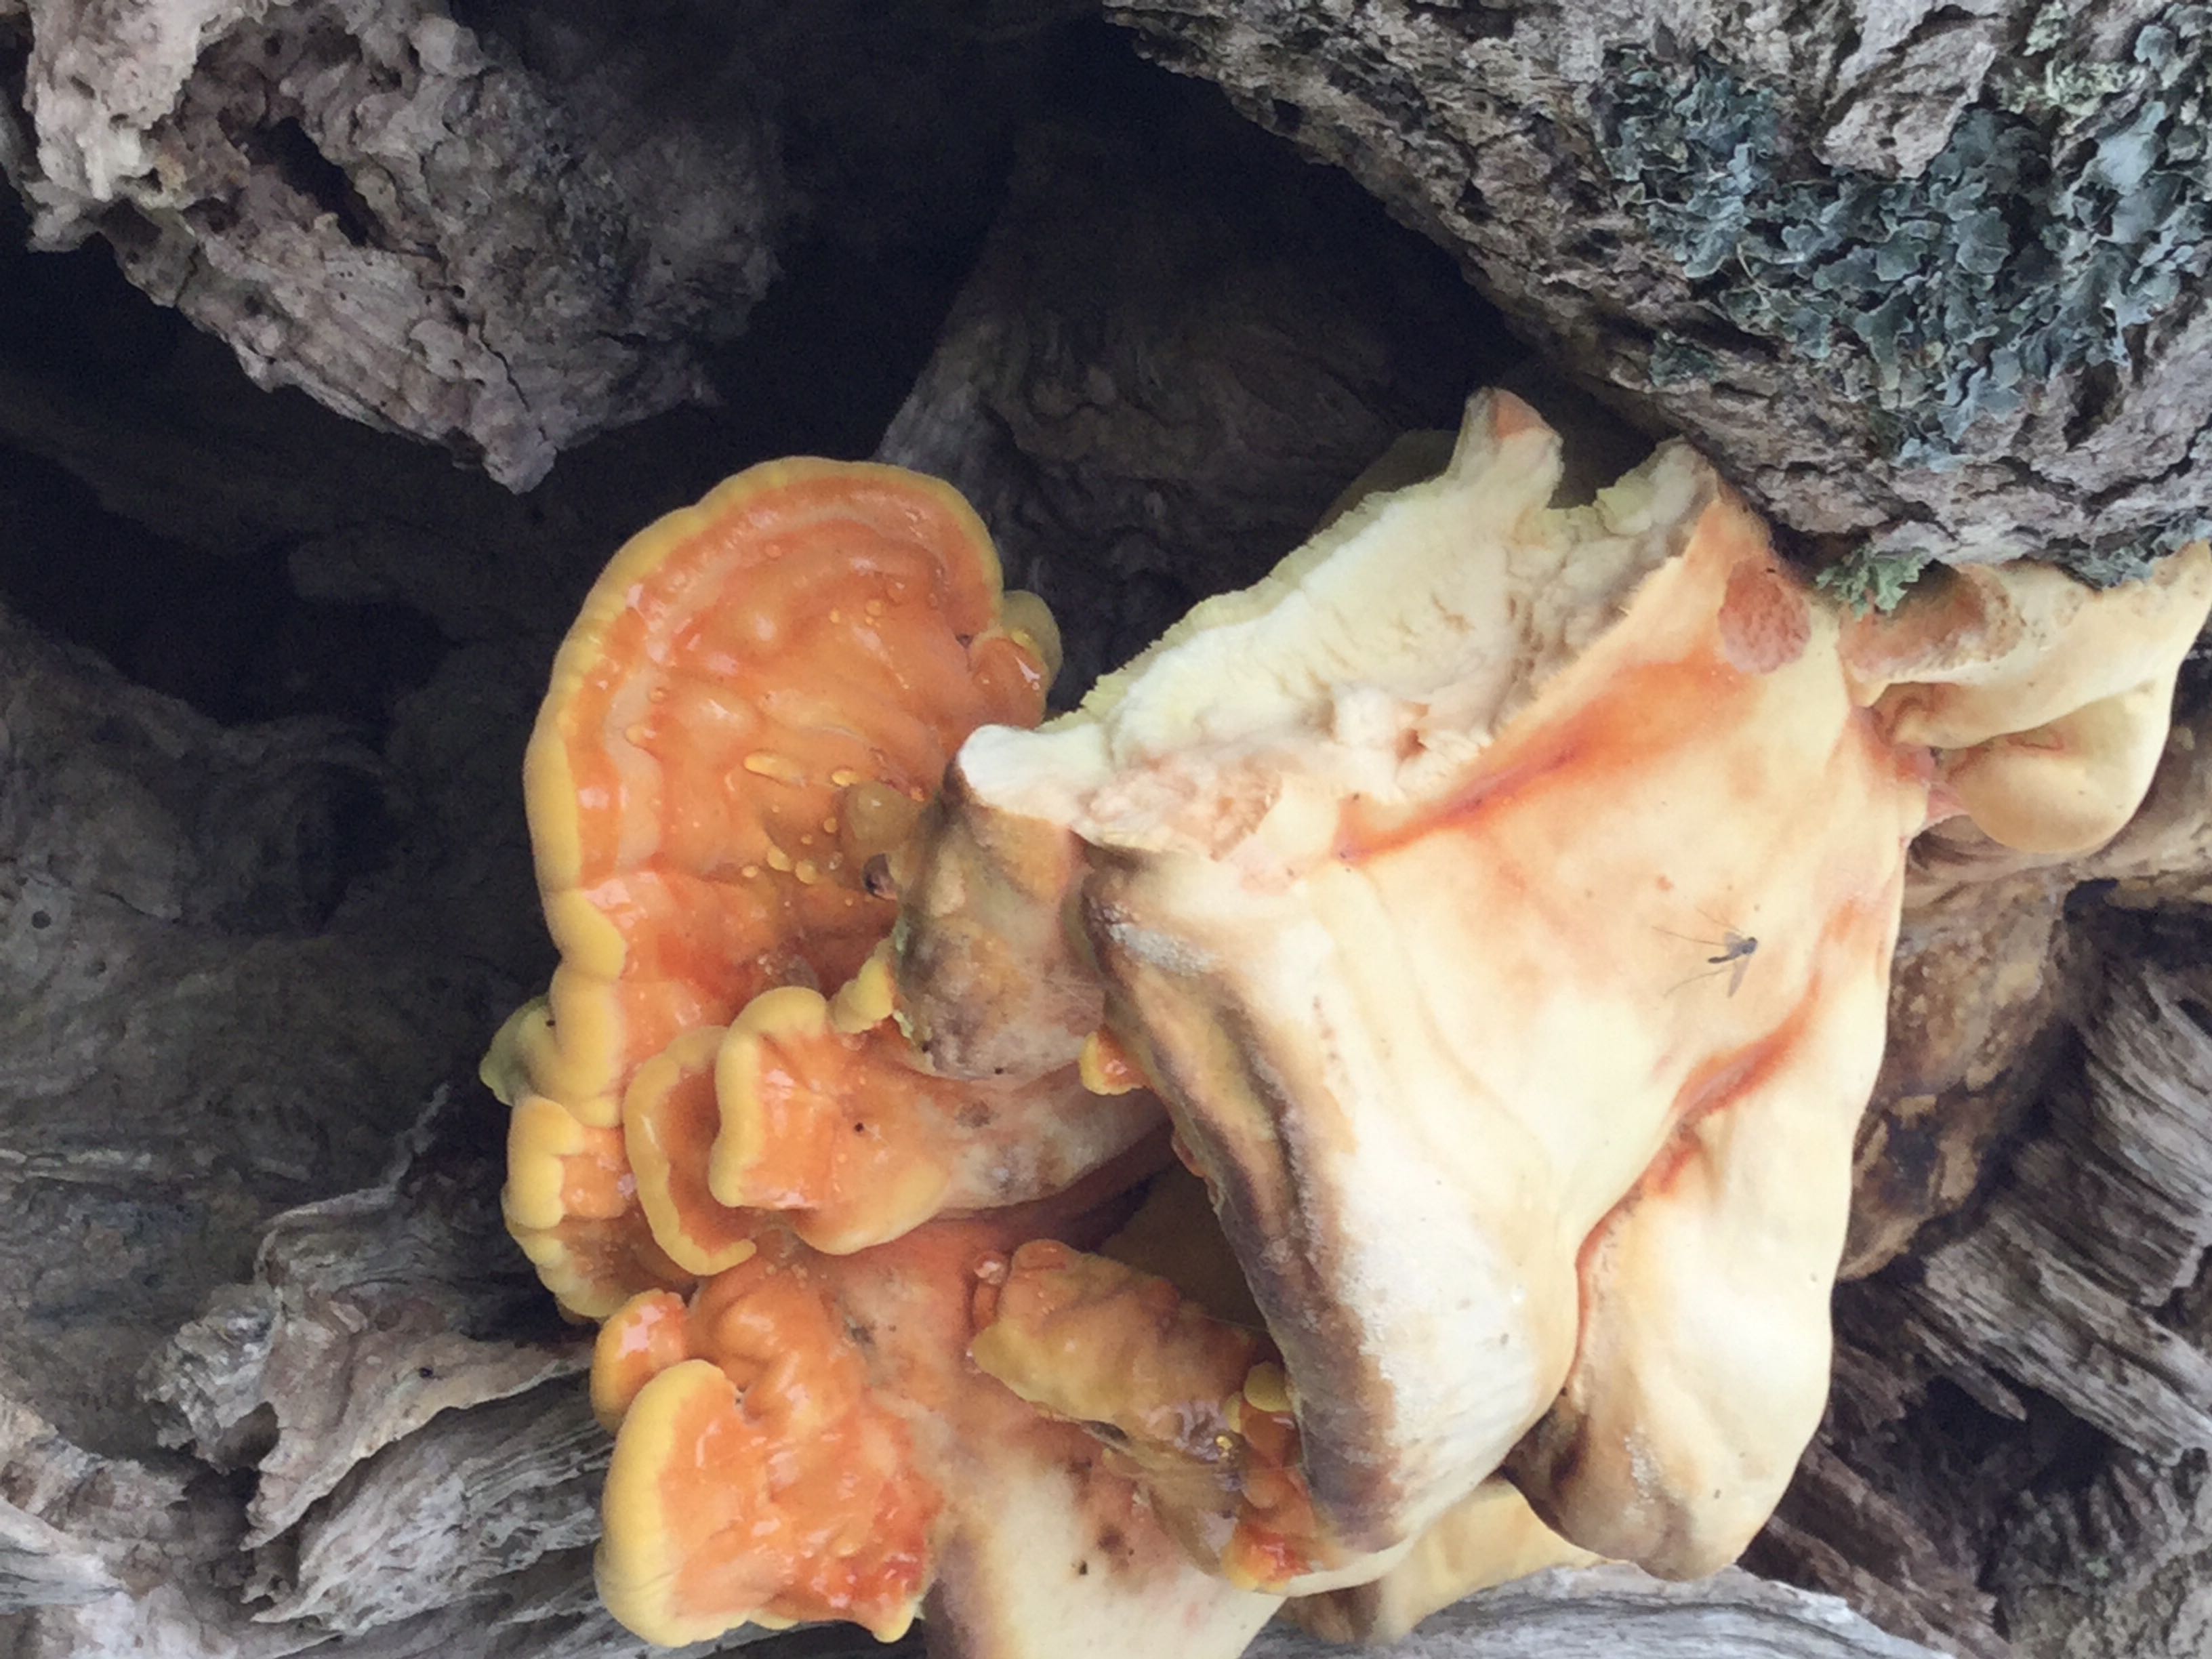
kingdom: Fungi
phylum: Basidiomycota
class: Agaricomycetes
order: Polyporales
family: Laetiporaceae
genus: Laetiporus
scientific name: Laetiporus sulphureus
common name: svovlporesvamp
